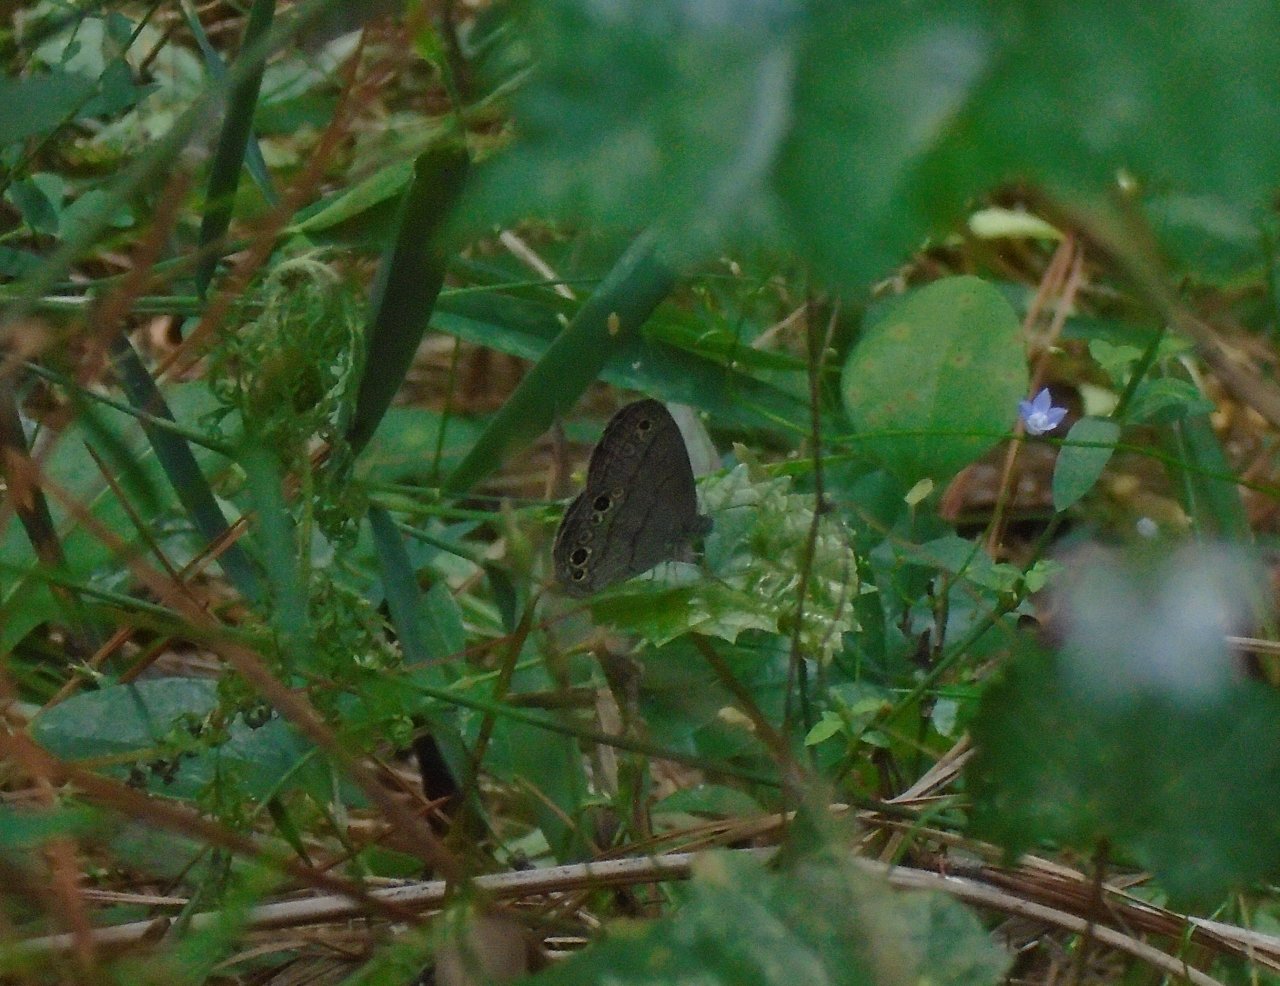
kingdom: Animalia
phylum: Arthropoda
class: Insecta
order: Lepidoptera
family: Nymphalidae
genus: Hermeuptychia
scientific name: Hermeuptychia hermes
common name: Carolina Satyr
